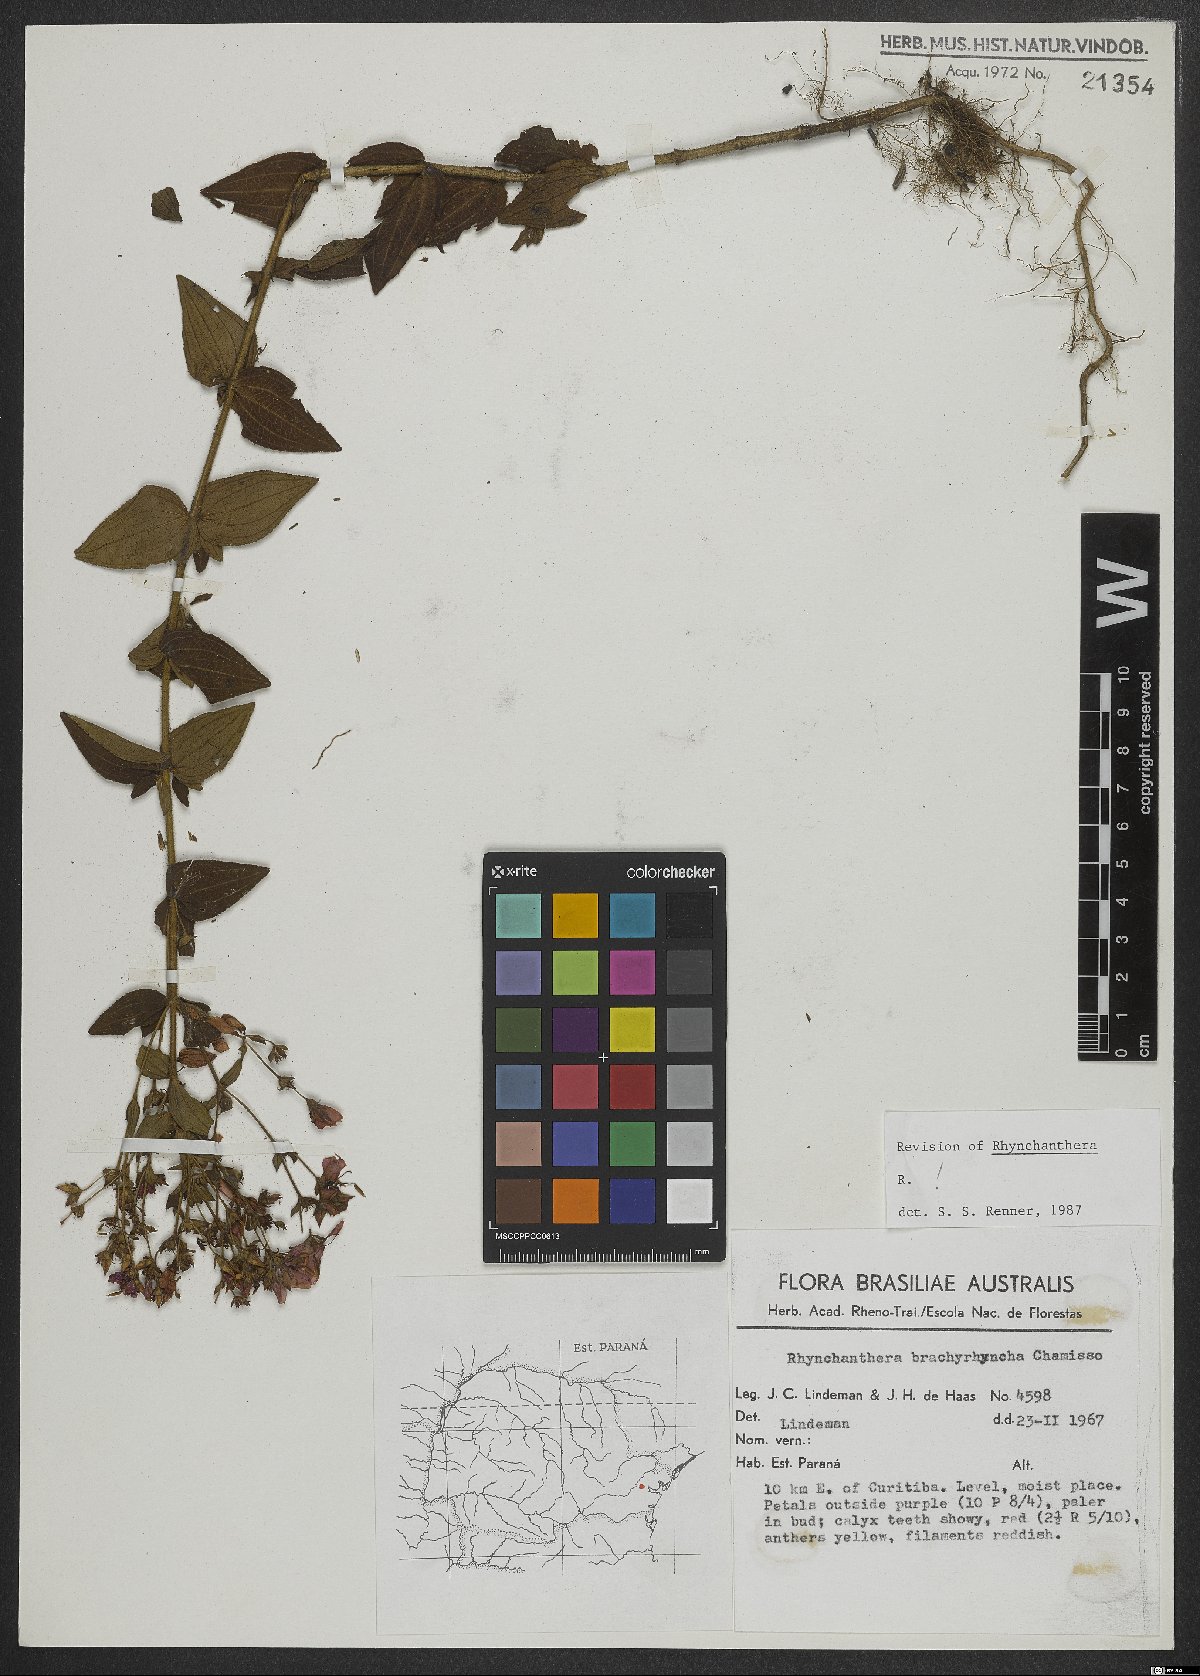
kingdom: Plantae
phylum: Tracheophyta
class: Magnoliopsida
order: Myrtales
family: Melastomataceae
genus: Rhynchanthera
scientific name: Rhynchanthera brachyrhyncha
